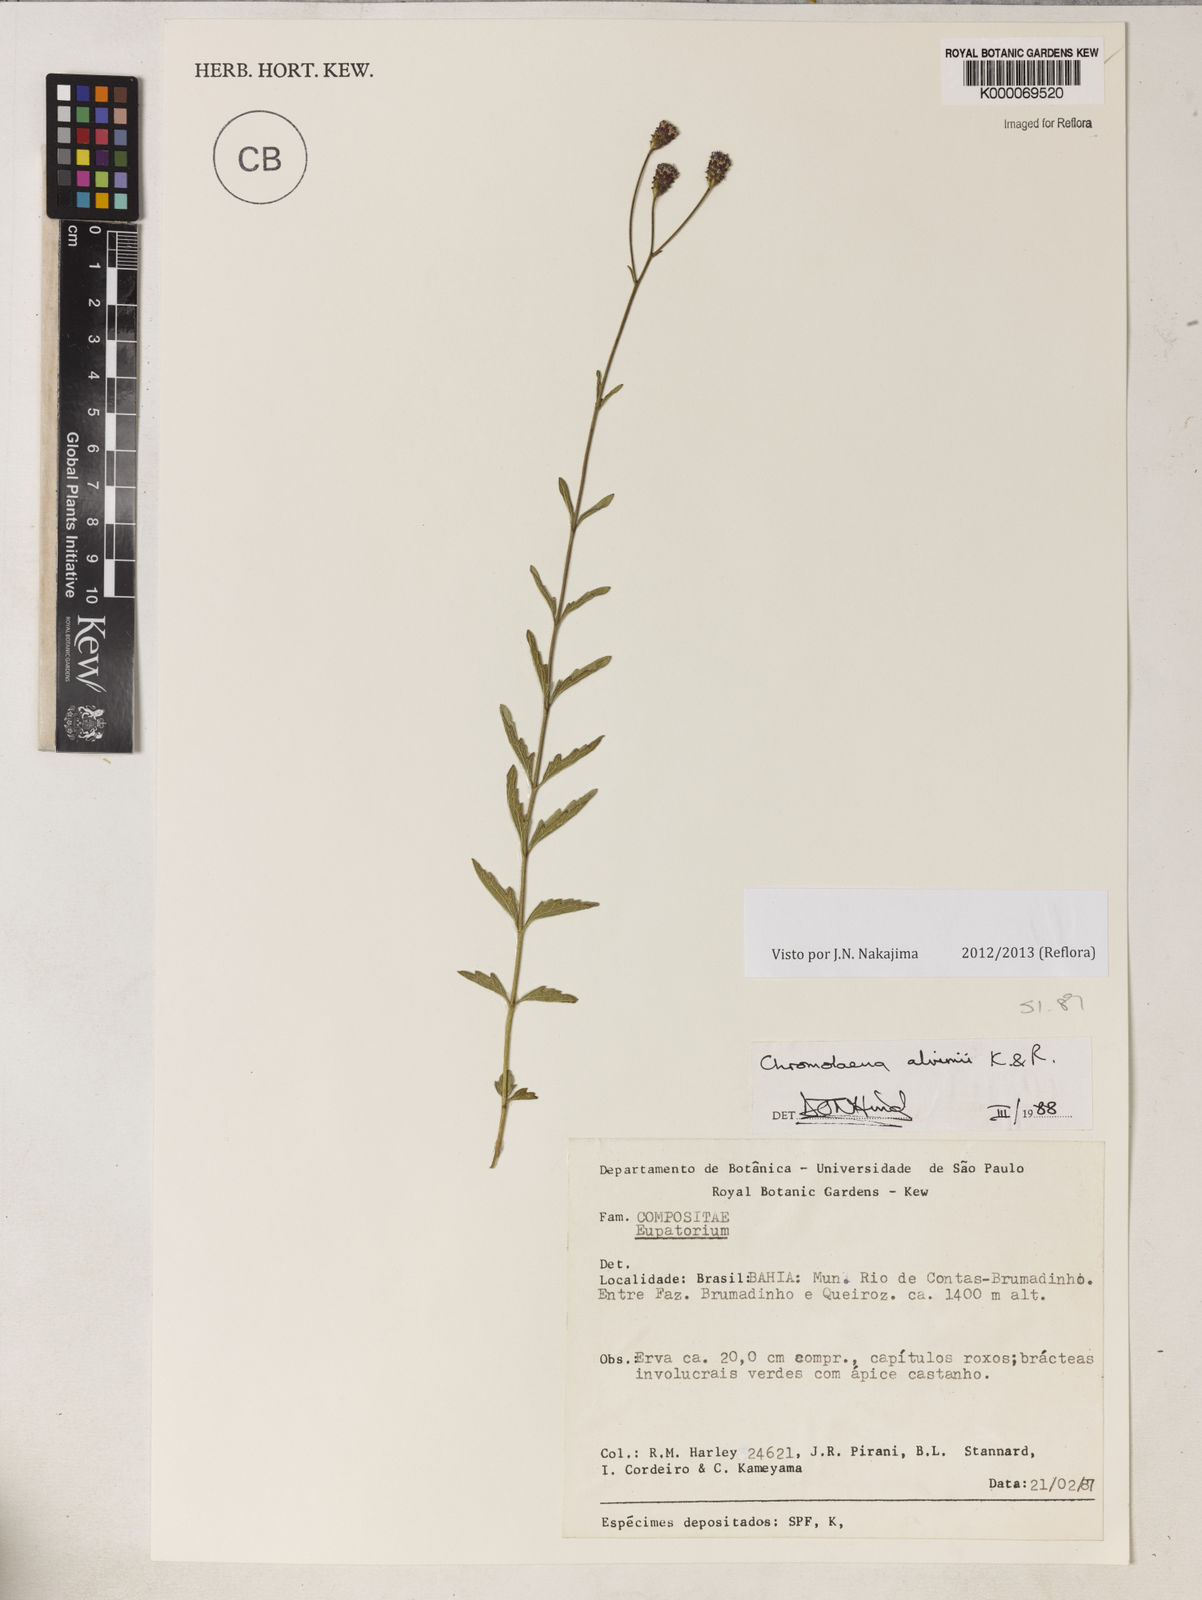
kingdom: Plantae
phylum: Tracheophyta
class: Magnoliopsida
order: Asterales
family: Asteraceae
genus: Chromolaena
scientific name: Chromolaena alvimii
